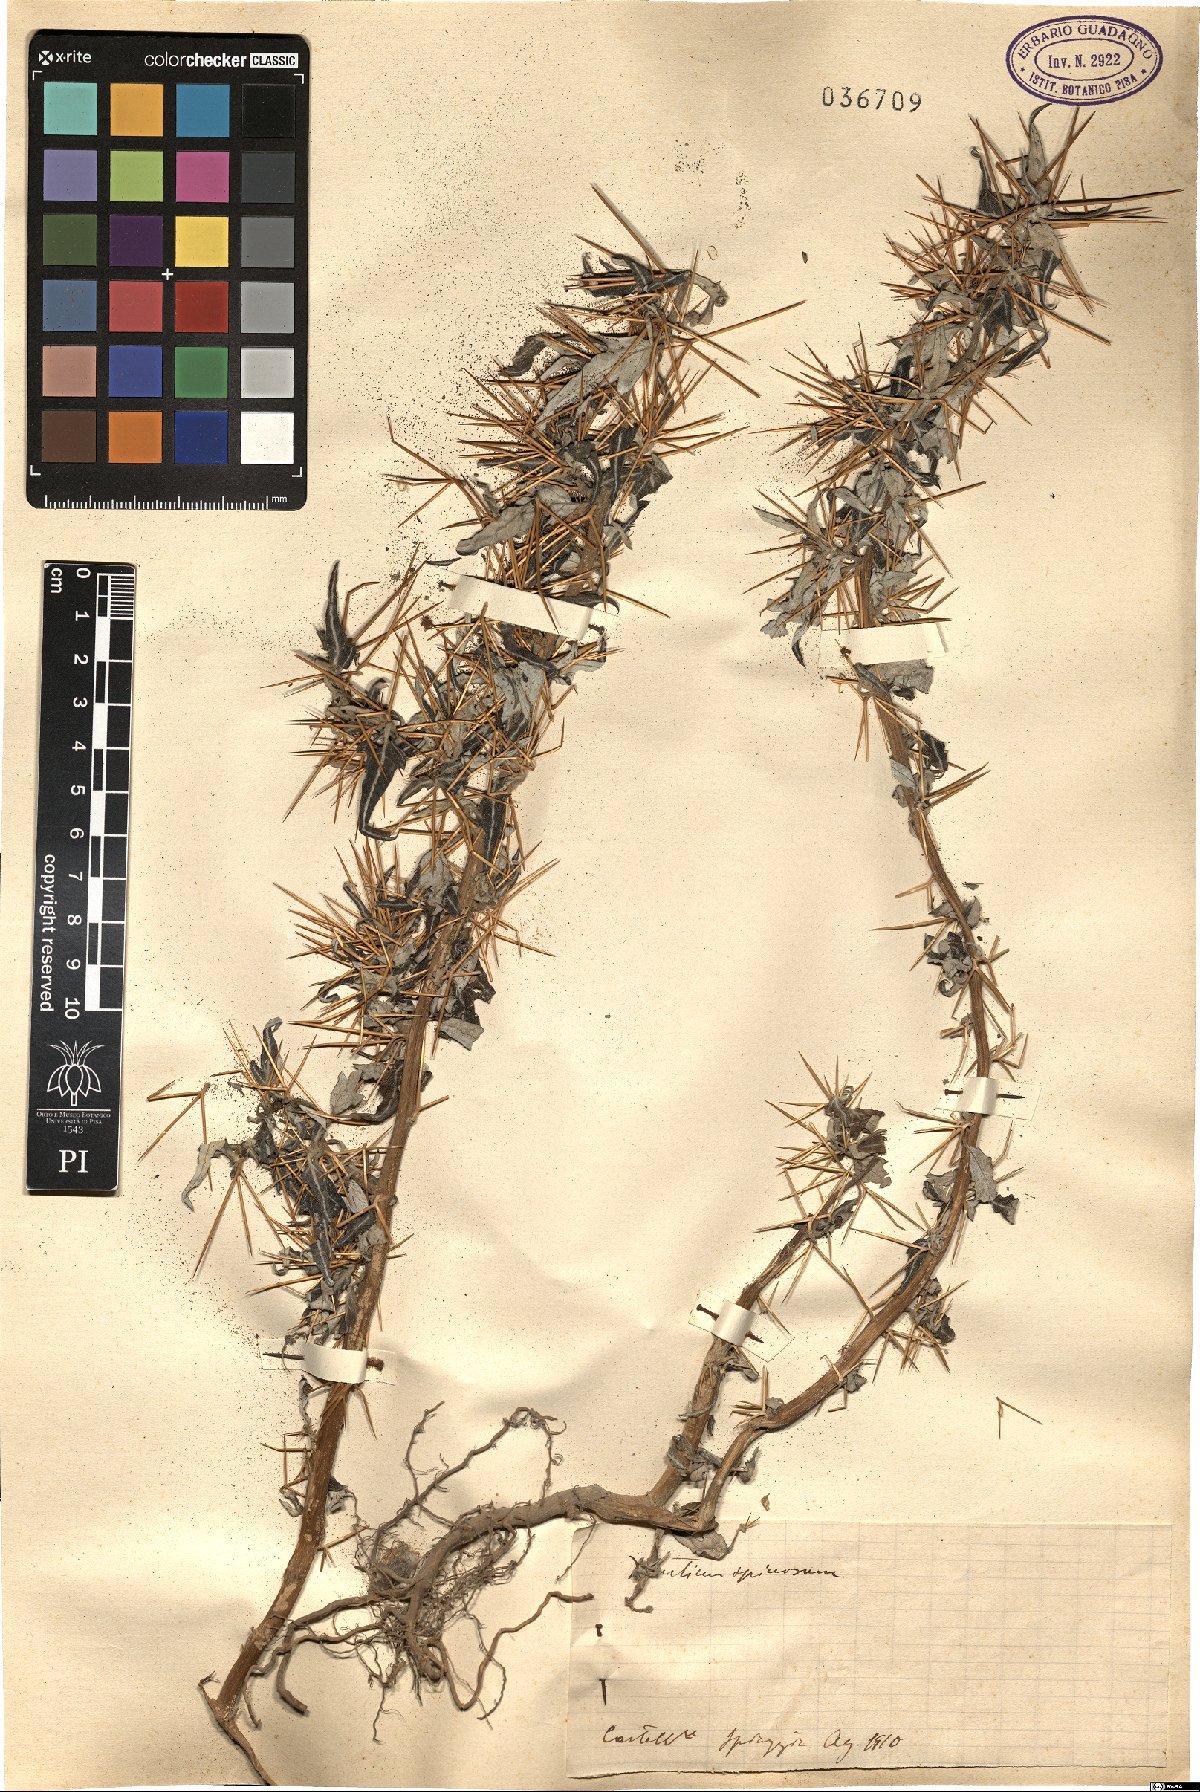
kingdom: Plantae
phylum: Tracheophyta
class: Magnoliopsida
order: Asterales
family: Asteraceae
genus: Xanthium
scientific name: Xanthium spinosum
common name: Spiny cocklebur
